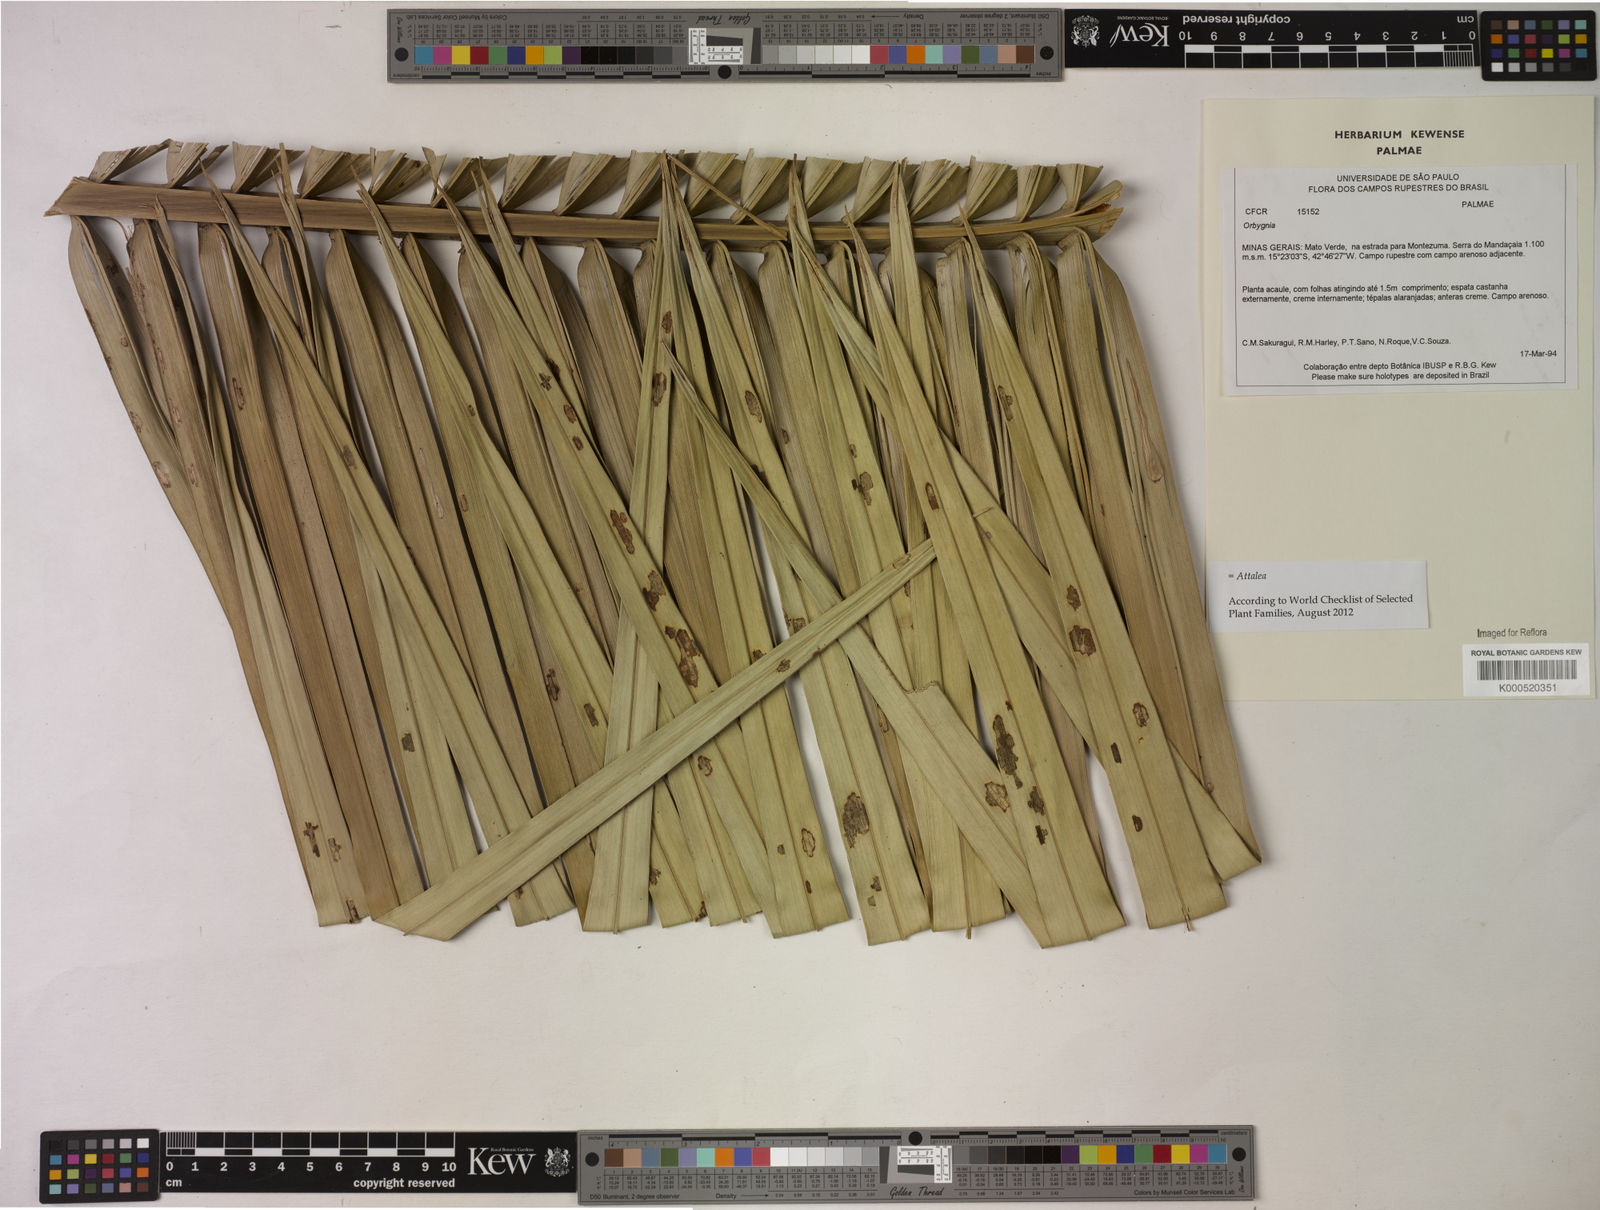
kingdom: Plantae
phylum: Tracheophyta
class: Magnoliopsida
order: Sapindales
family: Sapindaceae
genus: Orbignya
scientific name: Orbignya
